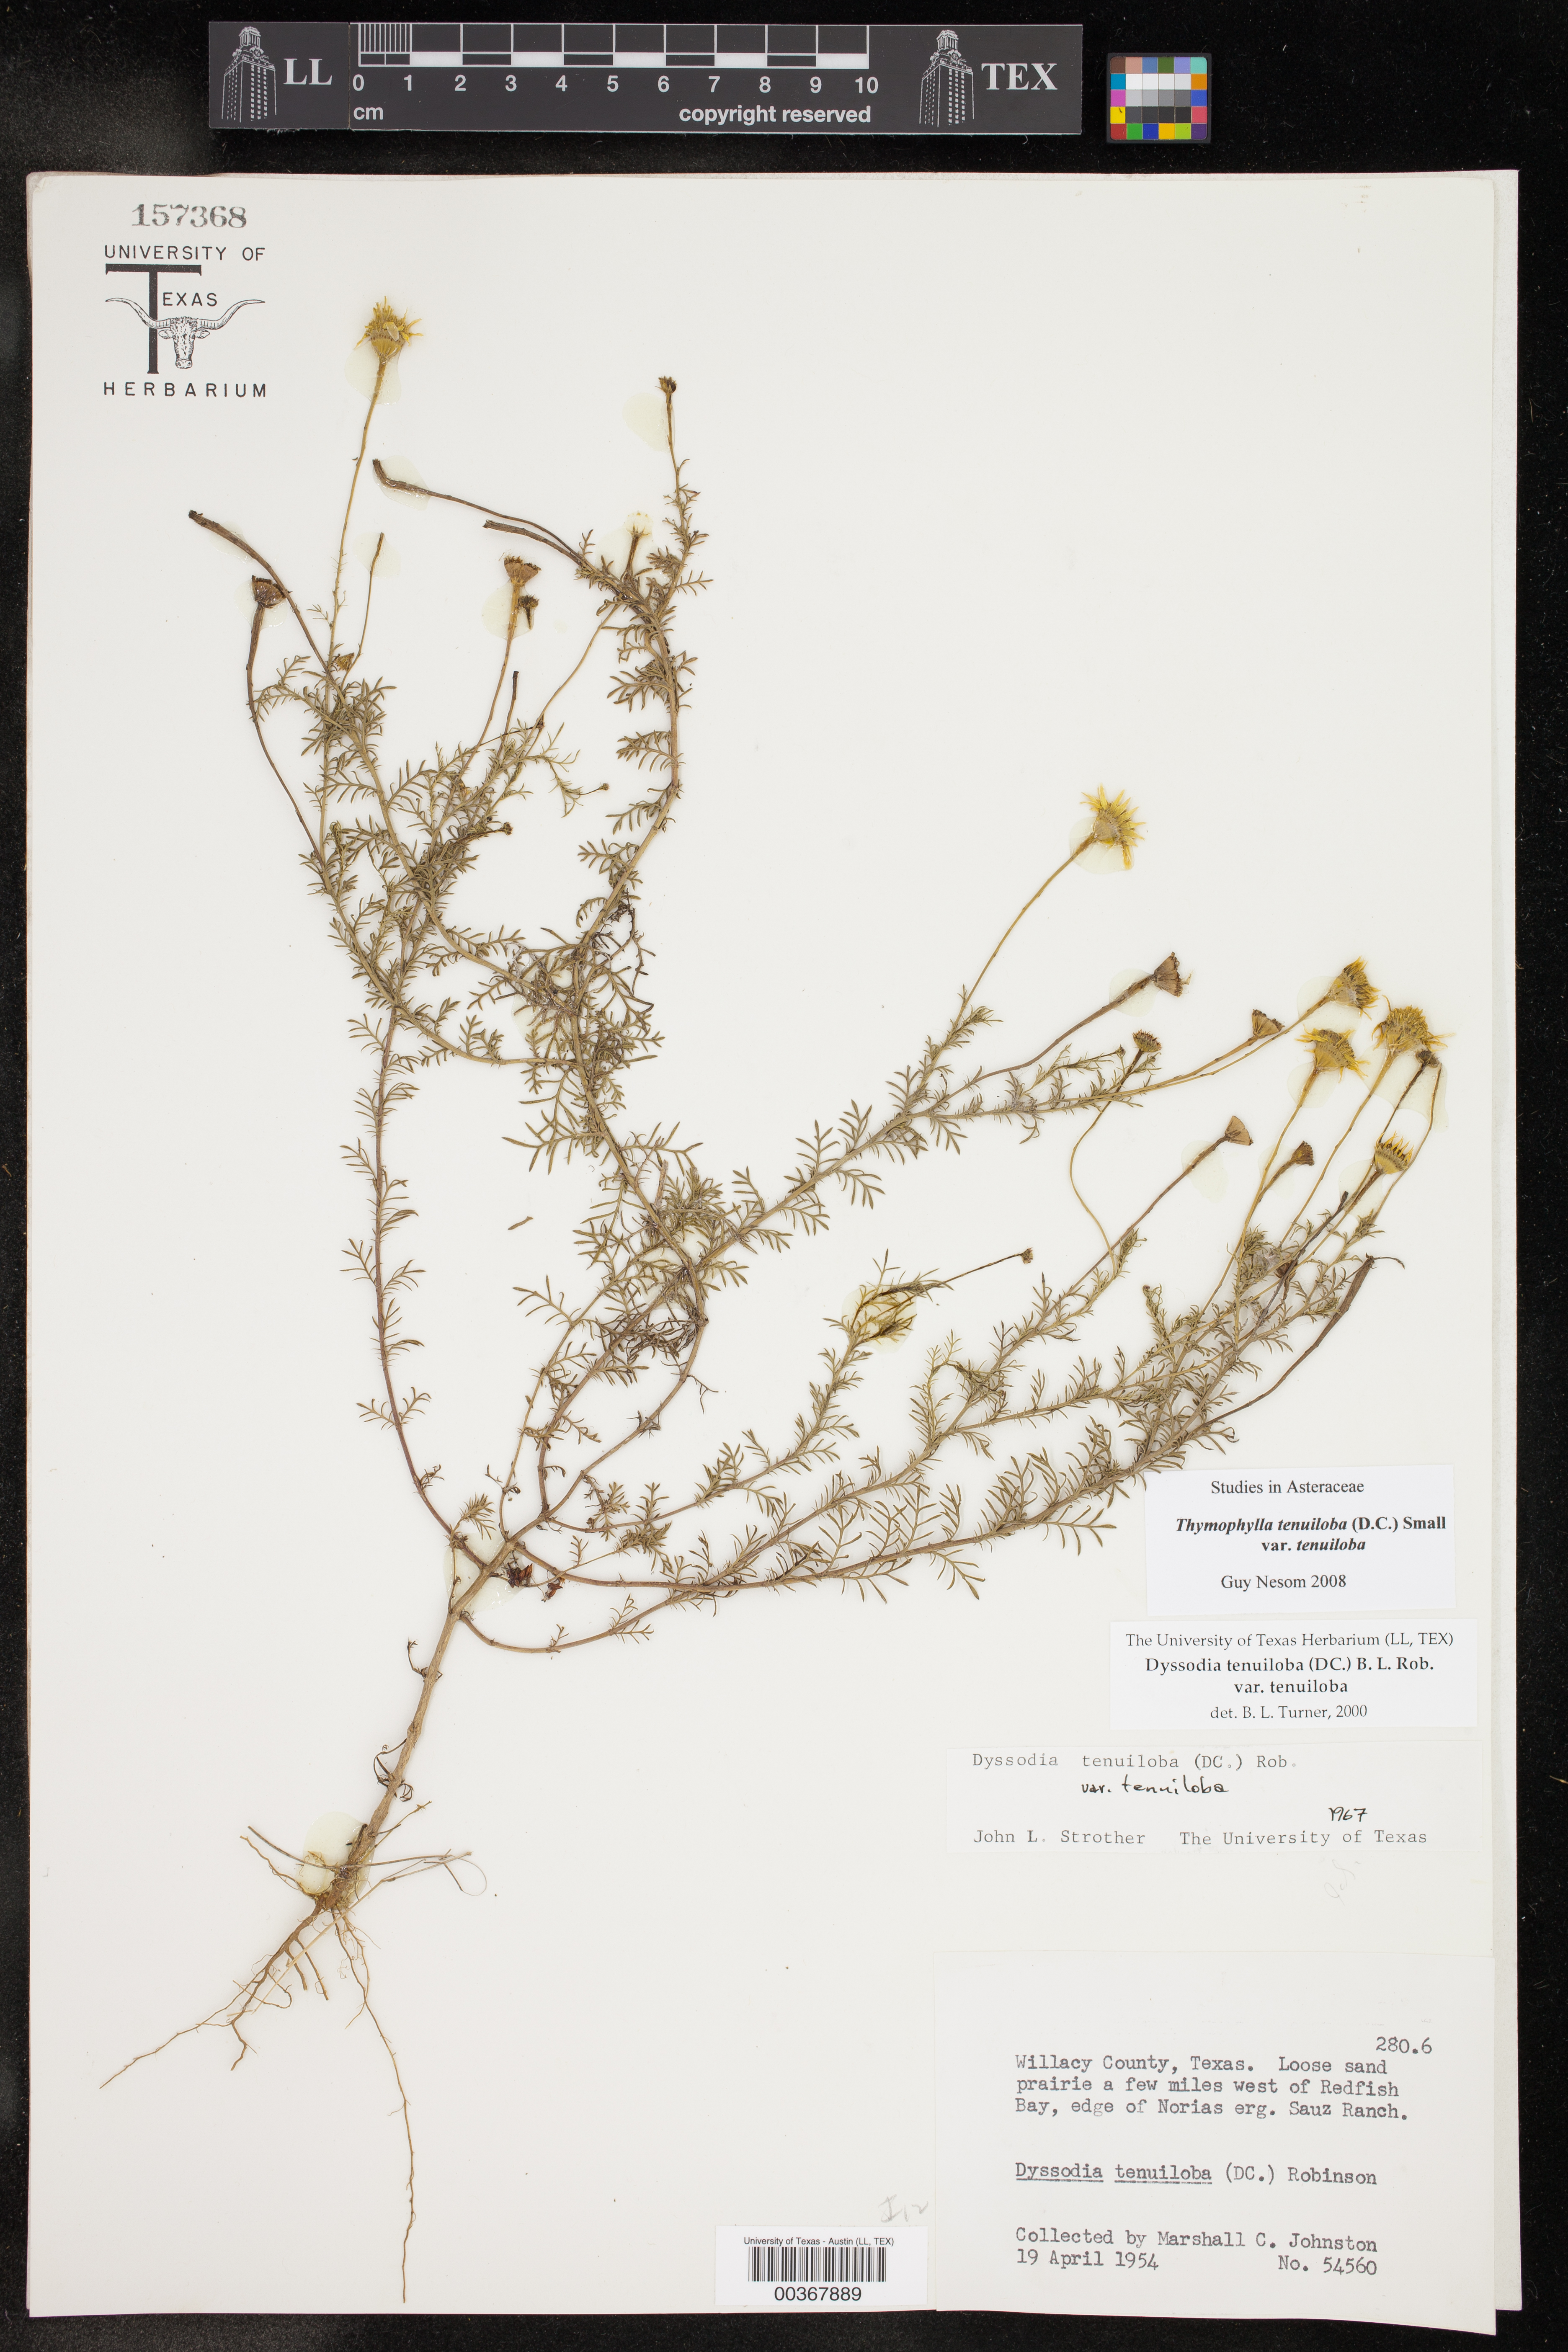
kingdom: Plantae
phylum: Tracheophyta
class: Magnoliopsida
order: Asterales
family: Asteraceae
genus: Thymophylla
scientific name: Thymophylla tenuiloba
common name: Dahlberg's daisy
